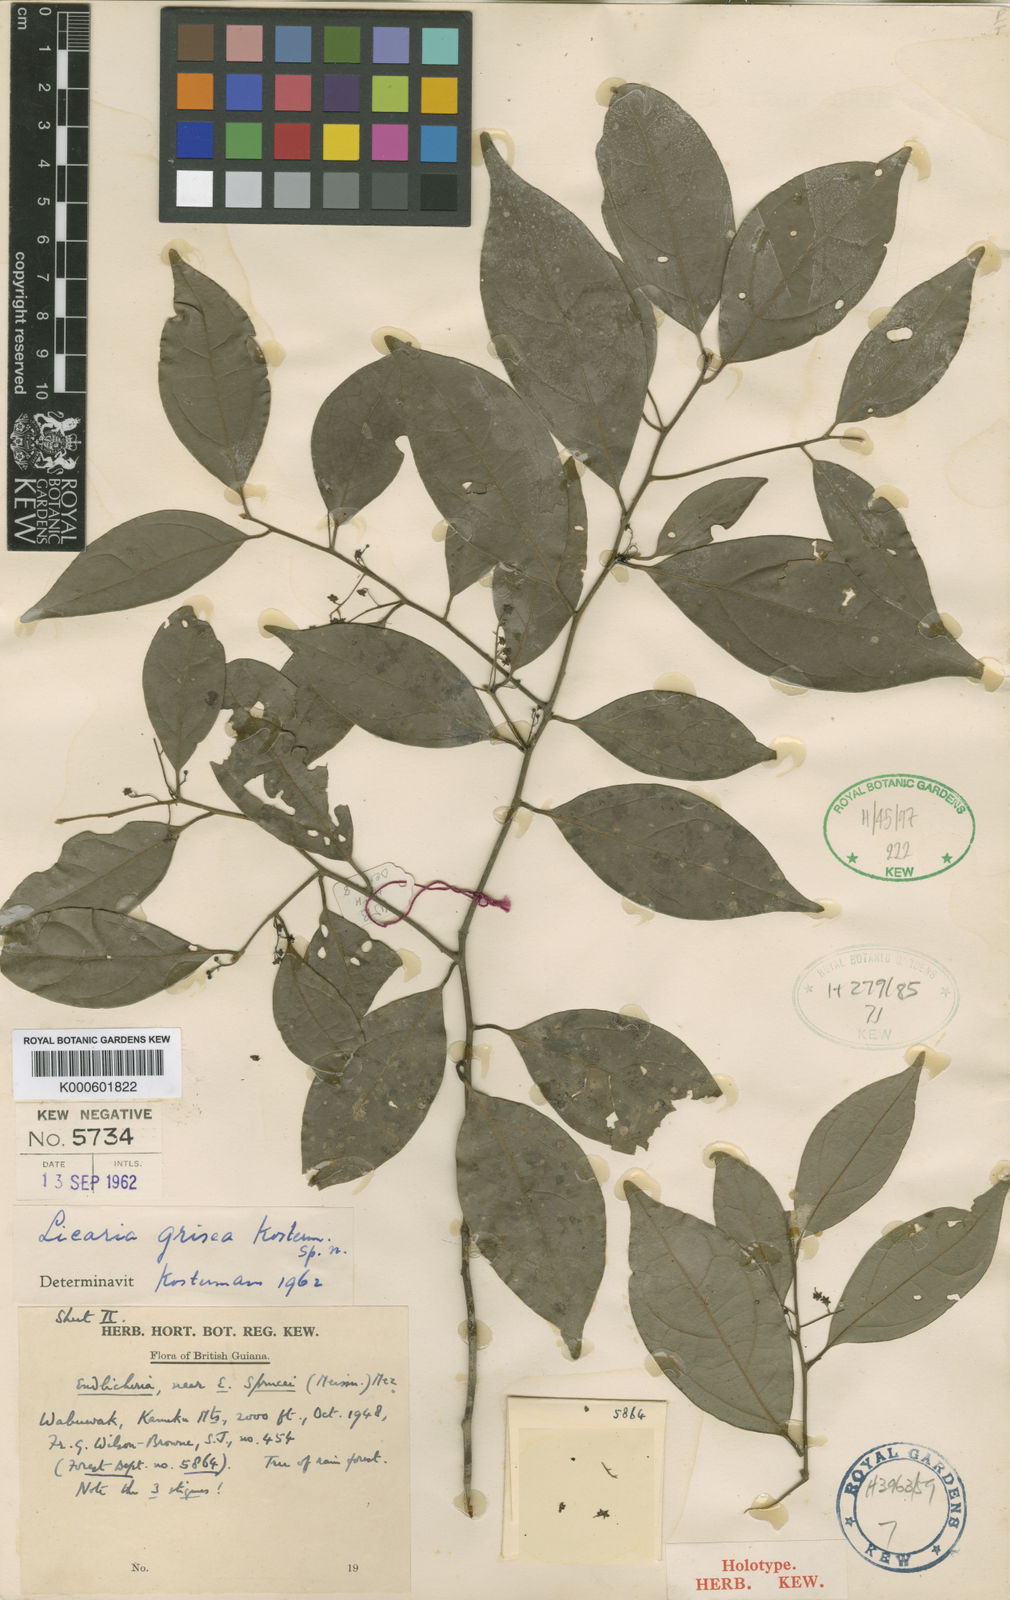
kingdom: Plantae
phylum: Tracheophyta
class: Magnoliopsida
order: Laurales
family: Lauraceae
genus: Endlicheria
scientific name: Endlicheria gracilis
